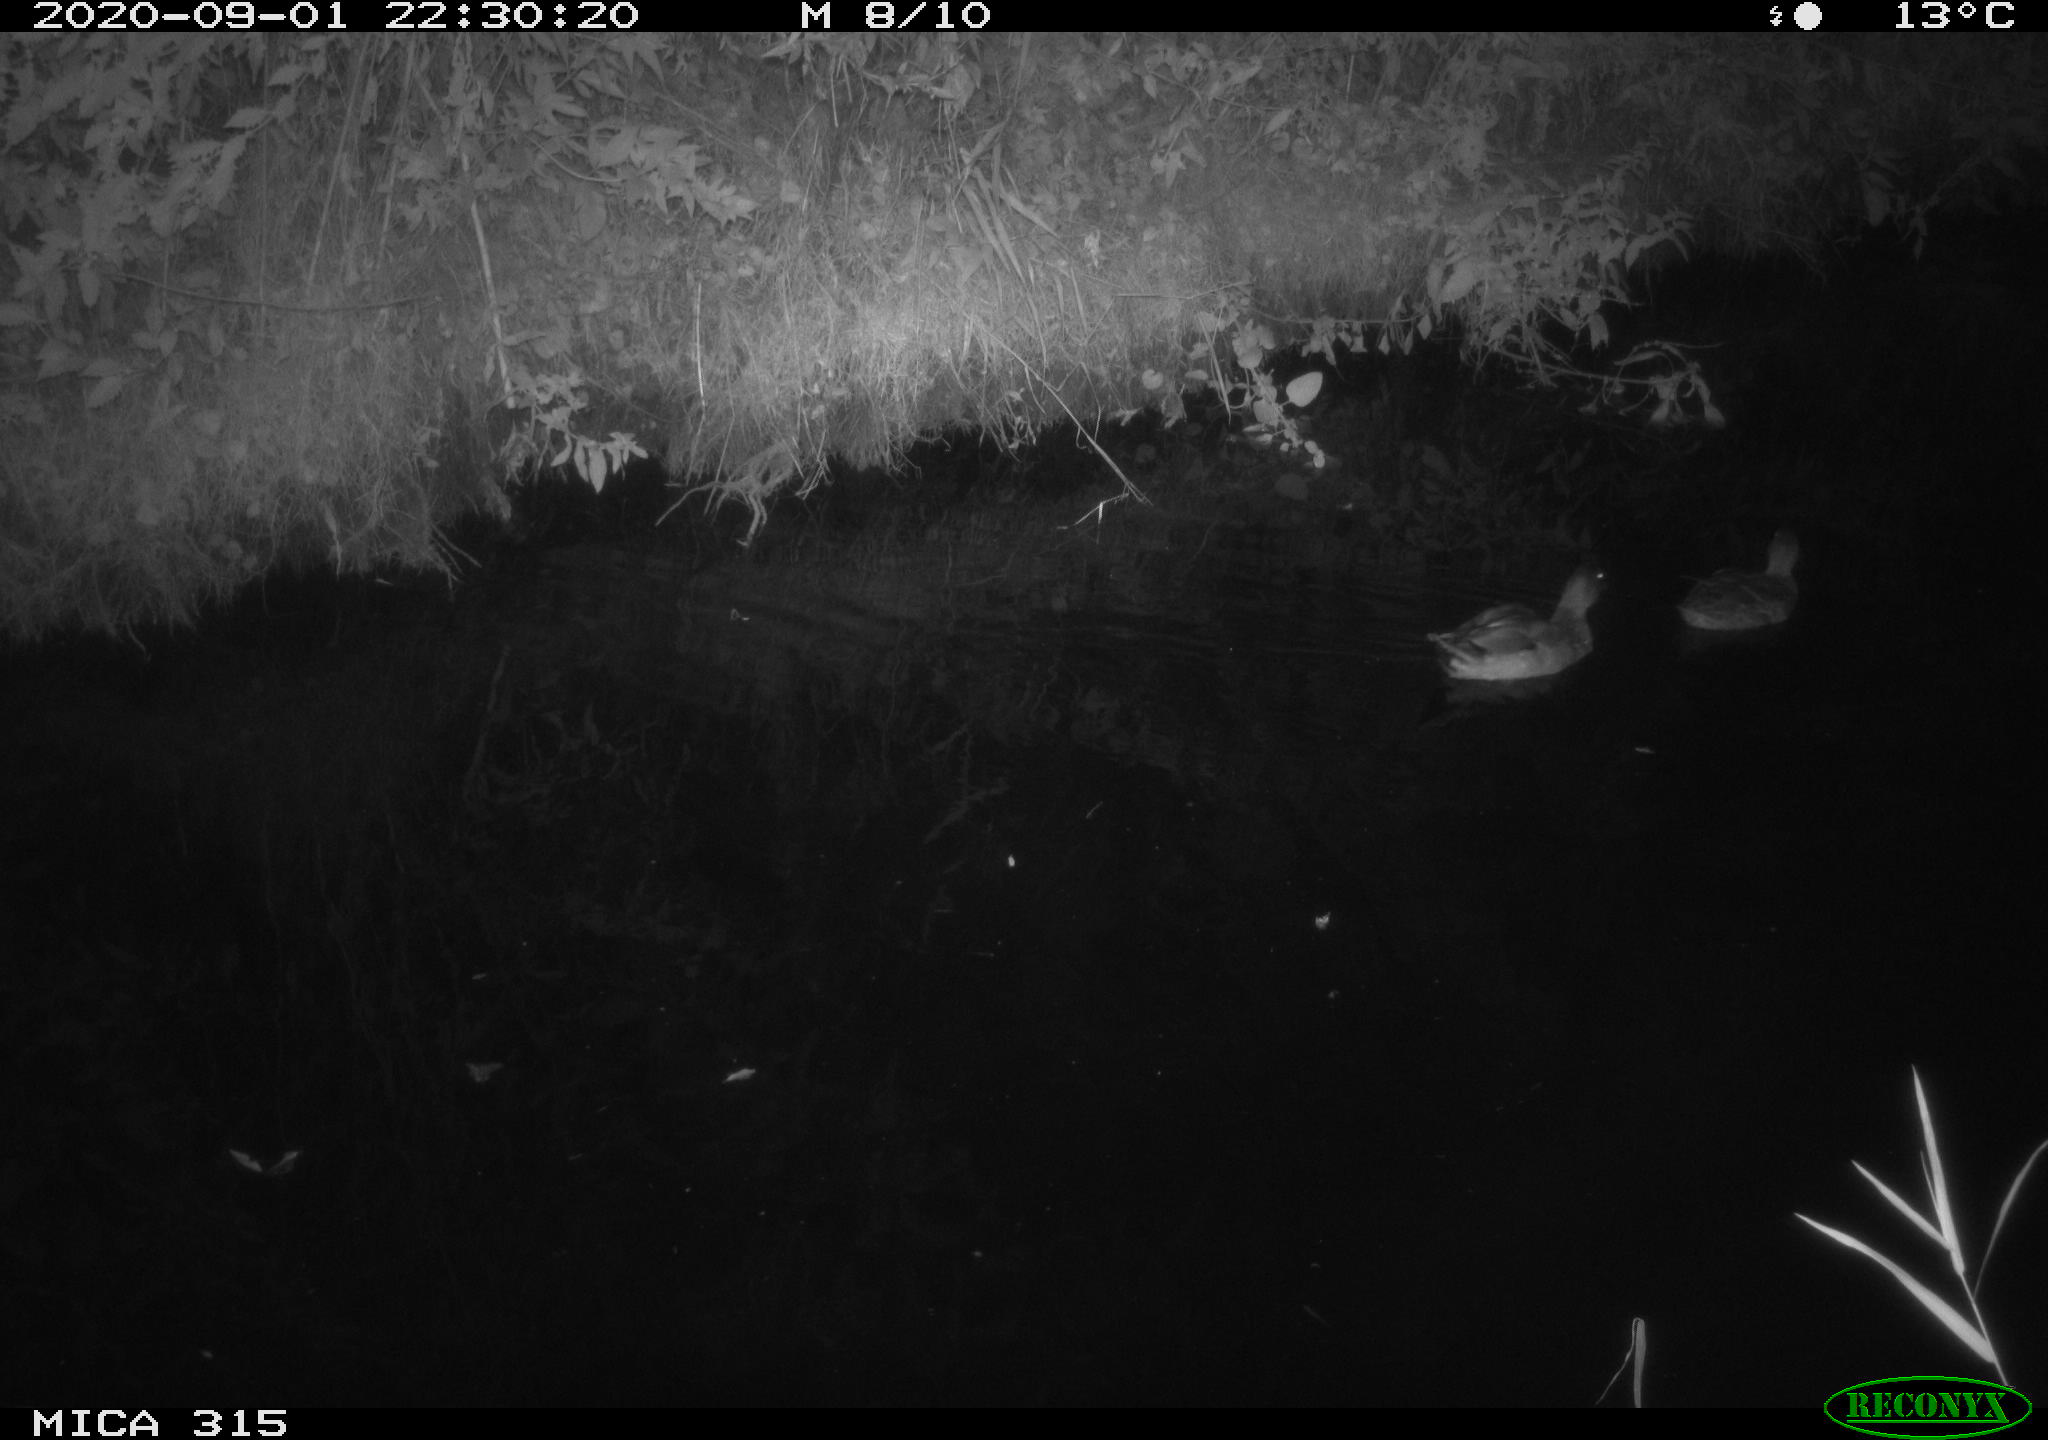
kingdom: Animalia
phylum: Chordata
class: Aves
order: Anseriformes
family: Anatidae
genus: Anas
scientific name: Anas platyrhynchos
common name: Mallard
